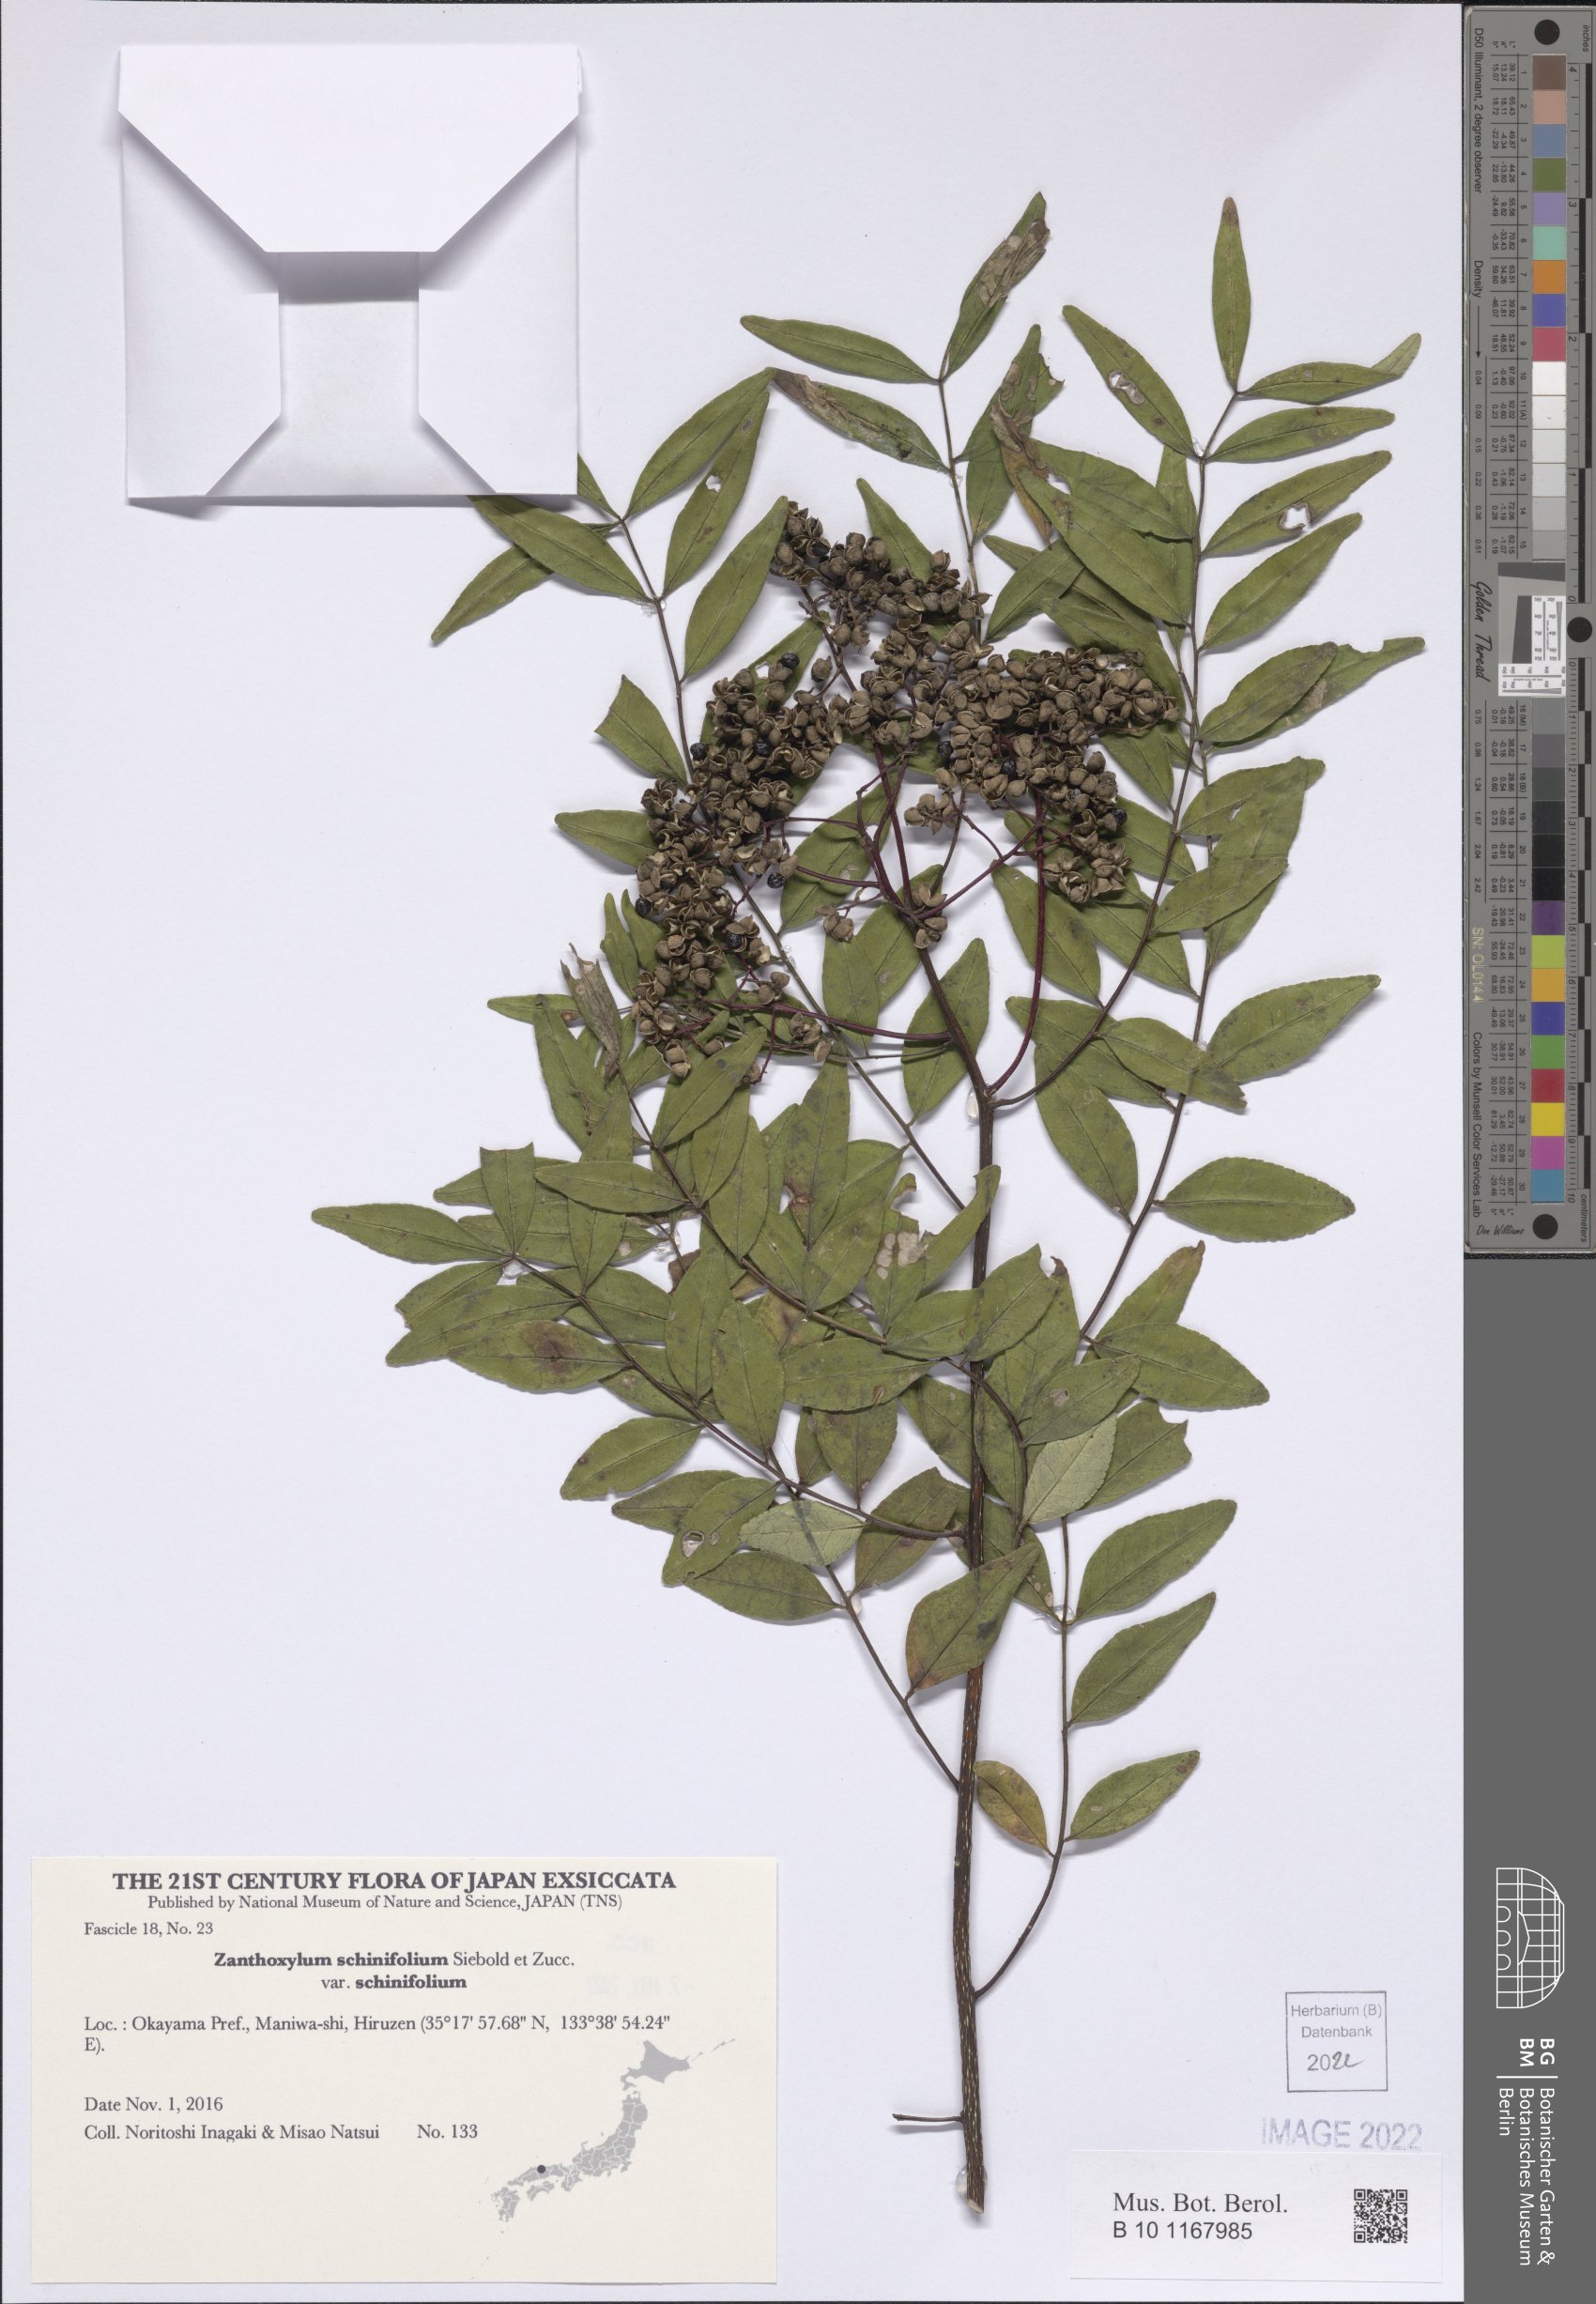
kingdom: Plantae
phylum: Tracheophyta
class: Magnoliopsida
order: Sapindales
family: Rutaceae
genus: Zanthoxylum
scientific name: Zanthoxylum schinifolium
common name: Sichuan-pepper
